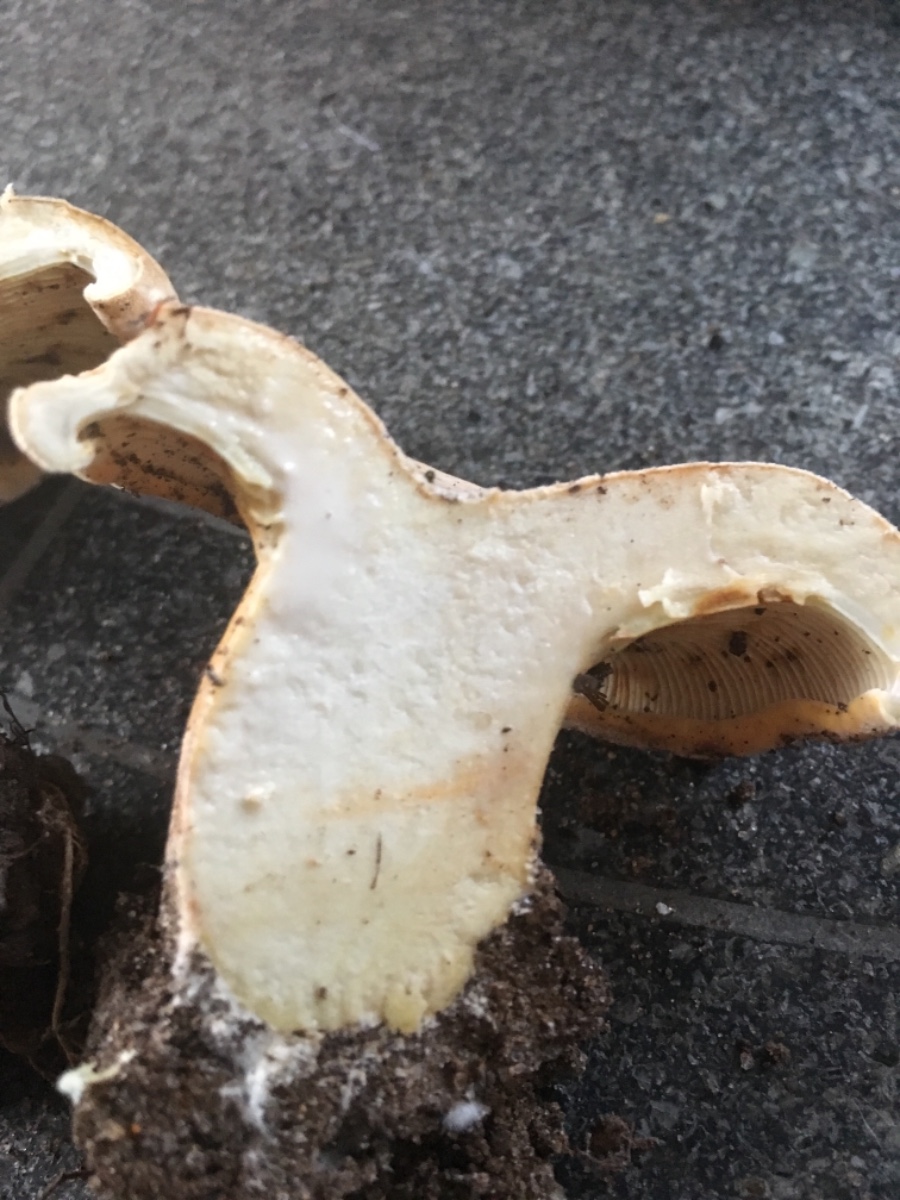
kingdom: Fungi
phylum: Basidiomycota
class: Agaricomycetes
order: Russulales
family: Russulaceae
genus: Lactifluus
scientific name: Lactifluus vellereus
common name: hvidfiltet mælkehat
